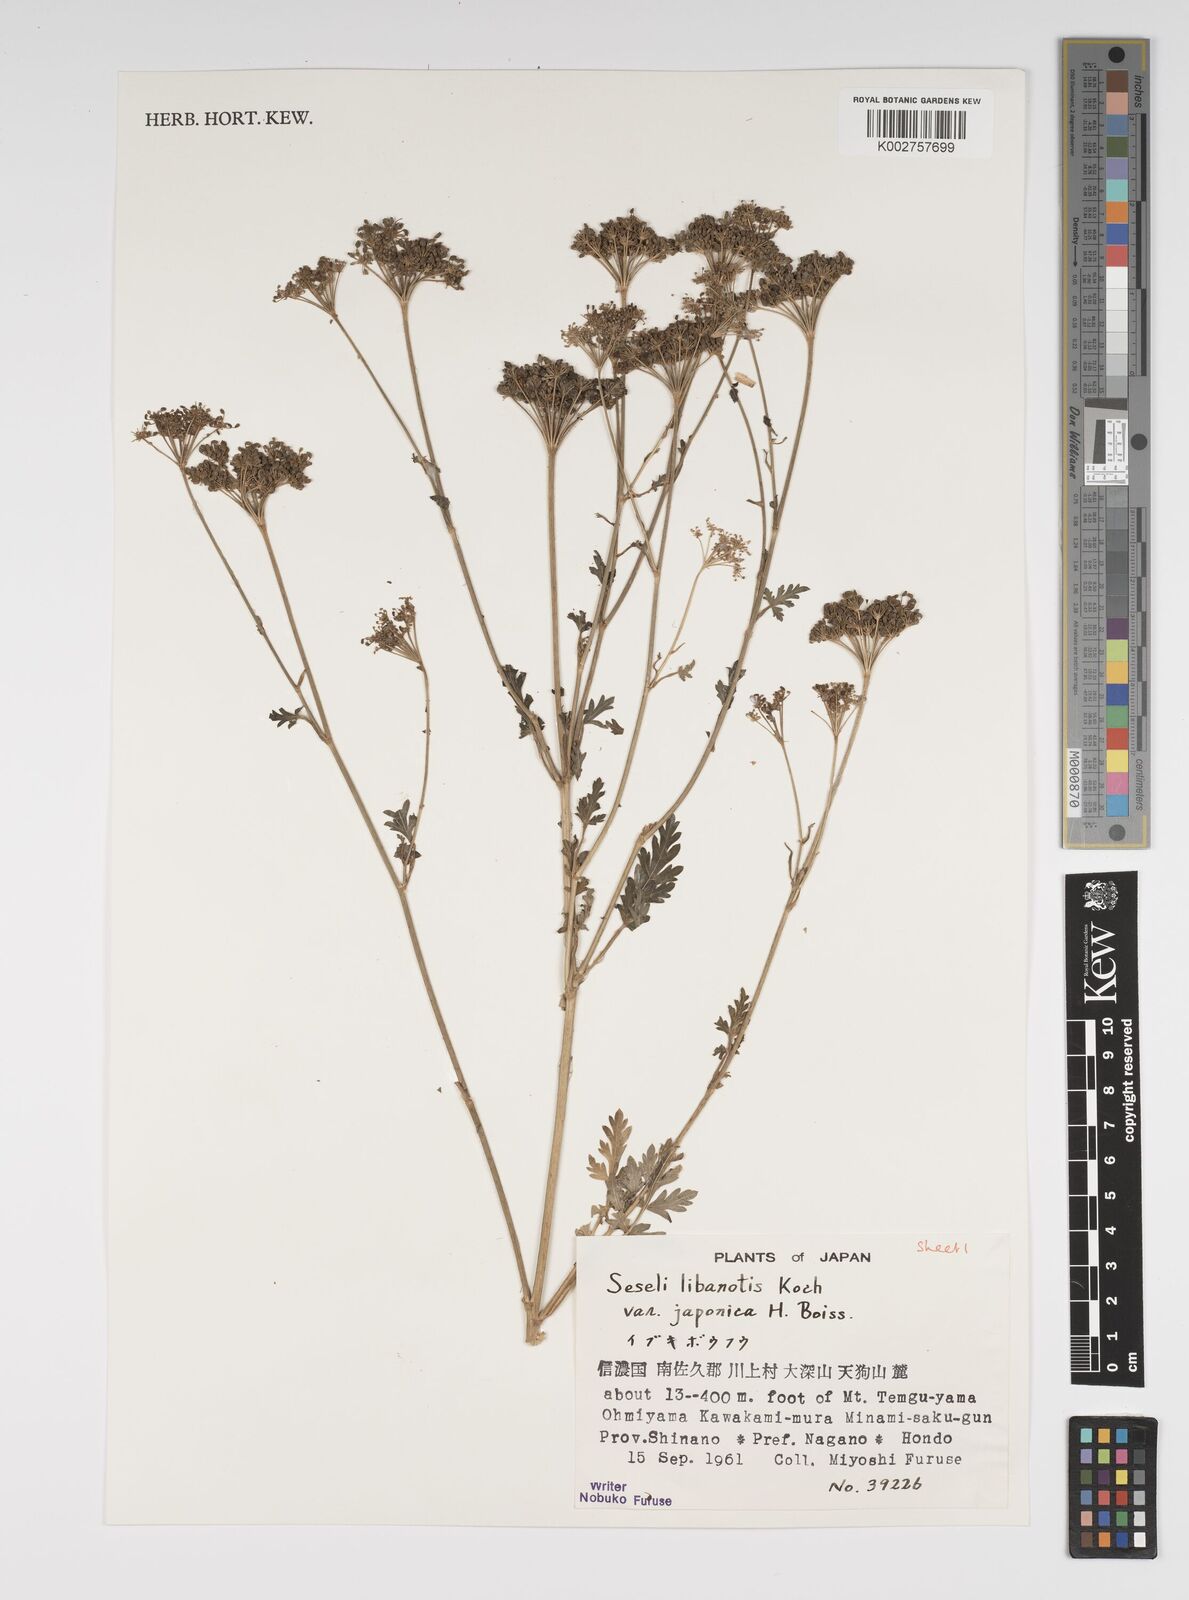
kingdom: Plantae
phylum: Tracheophyta
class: Magnoliopsida
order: Apiales
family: Apiaceae
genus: Seseli
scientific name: Seseli libanotis
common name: Mooncarrot
